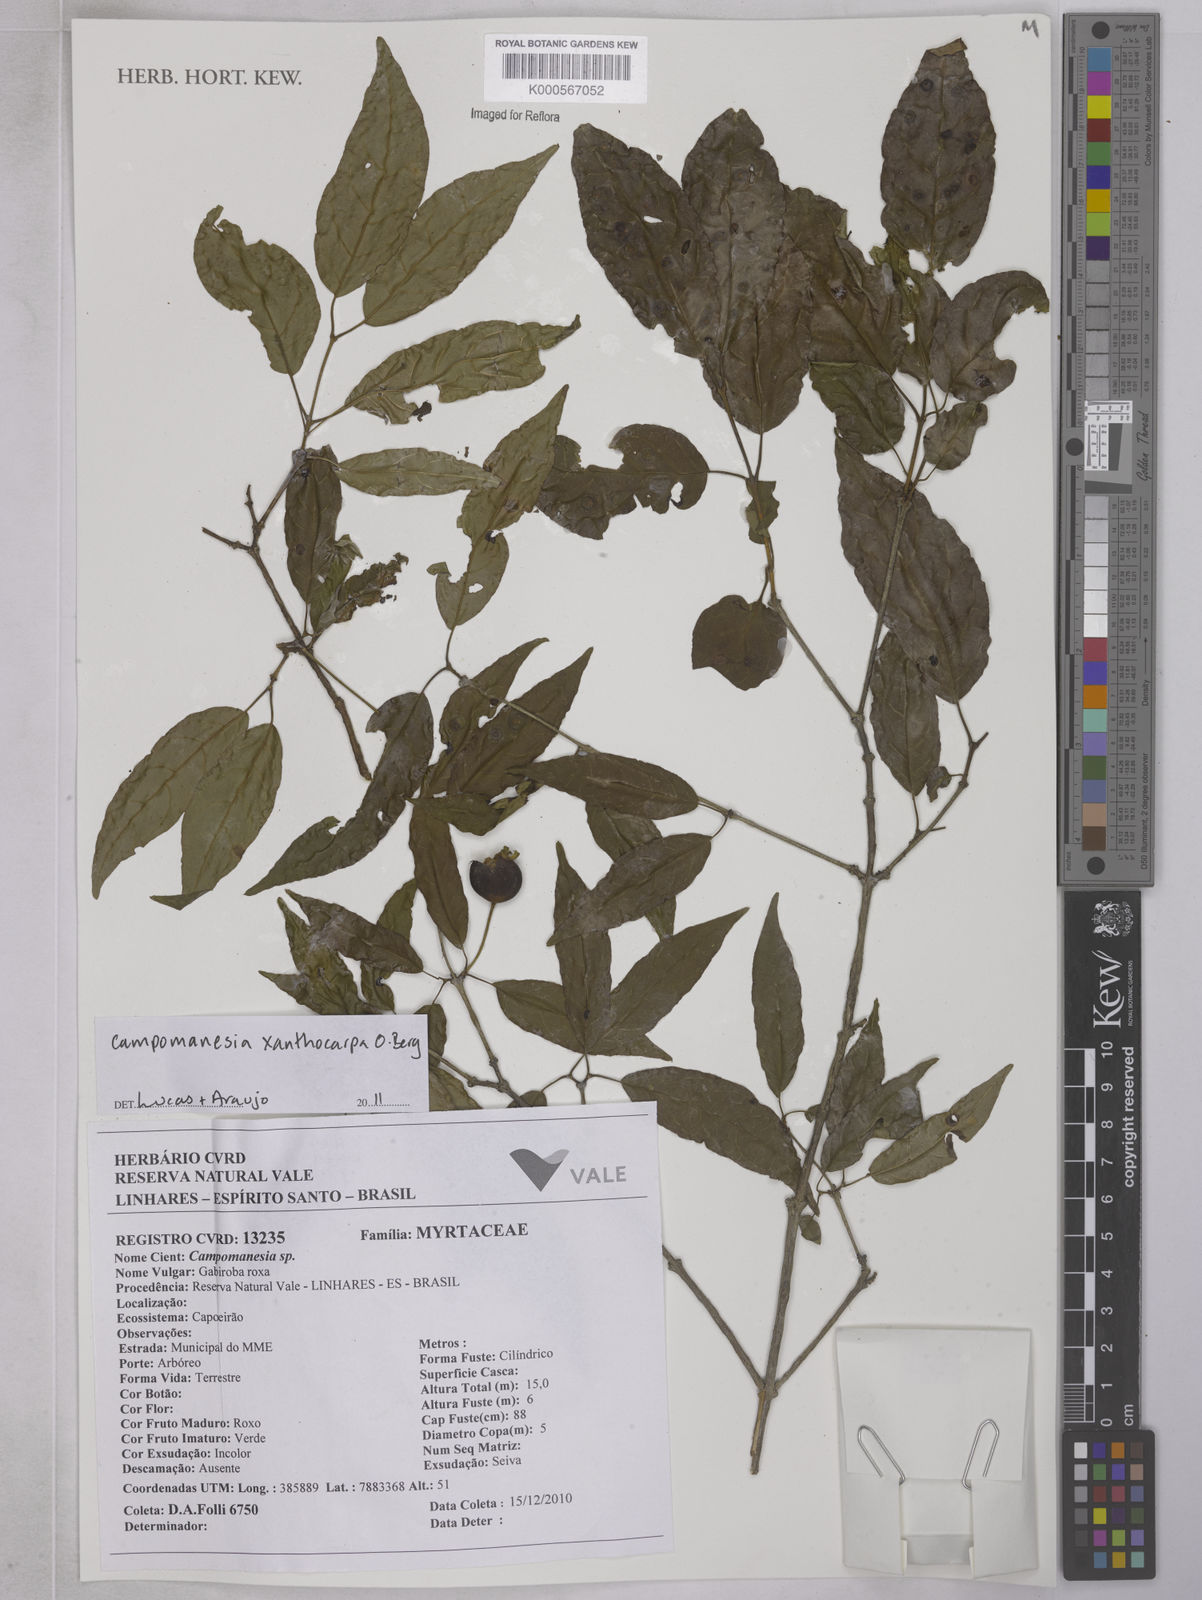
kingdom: Plantae
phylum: Tracheophyta
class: Magnoliopsida
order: Myrtales
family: Myrtaceae
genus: Campomanesia
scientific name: Campomanesia xanthocarpa
